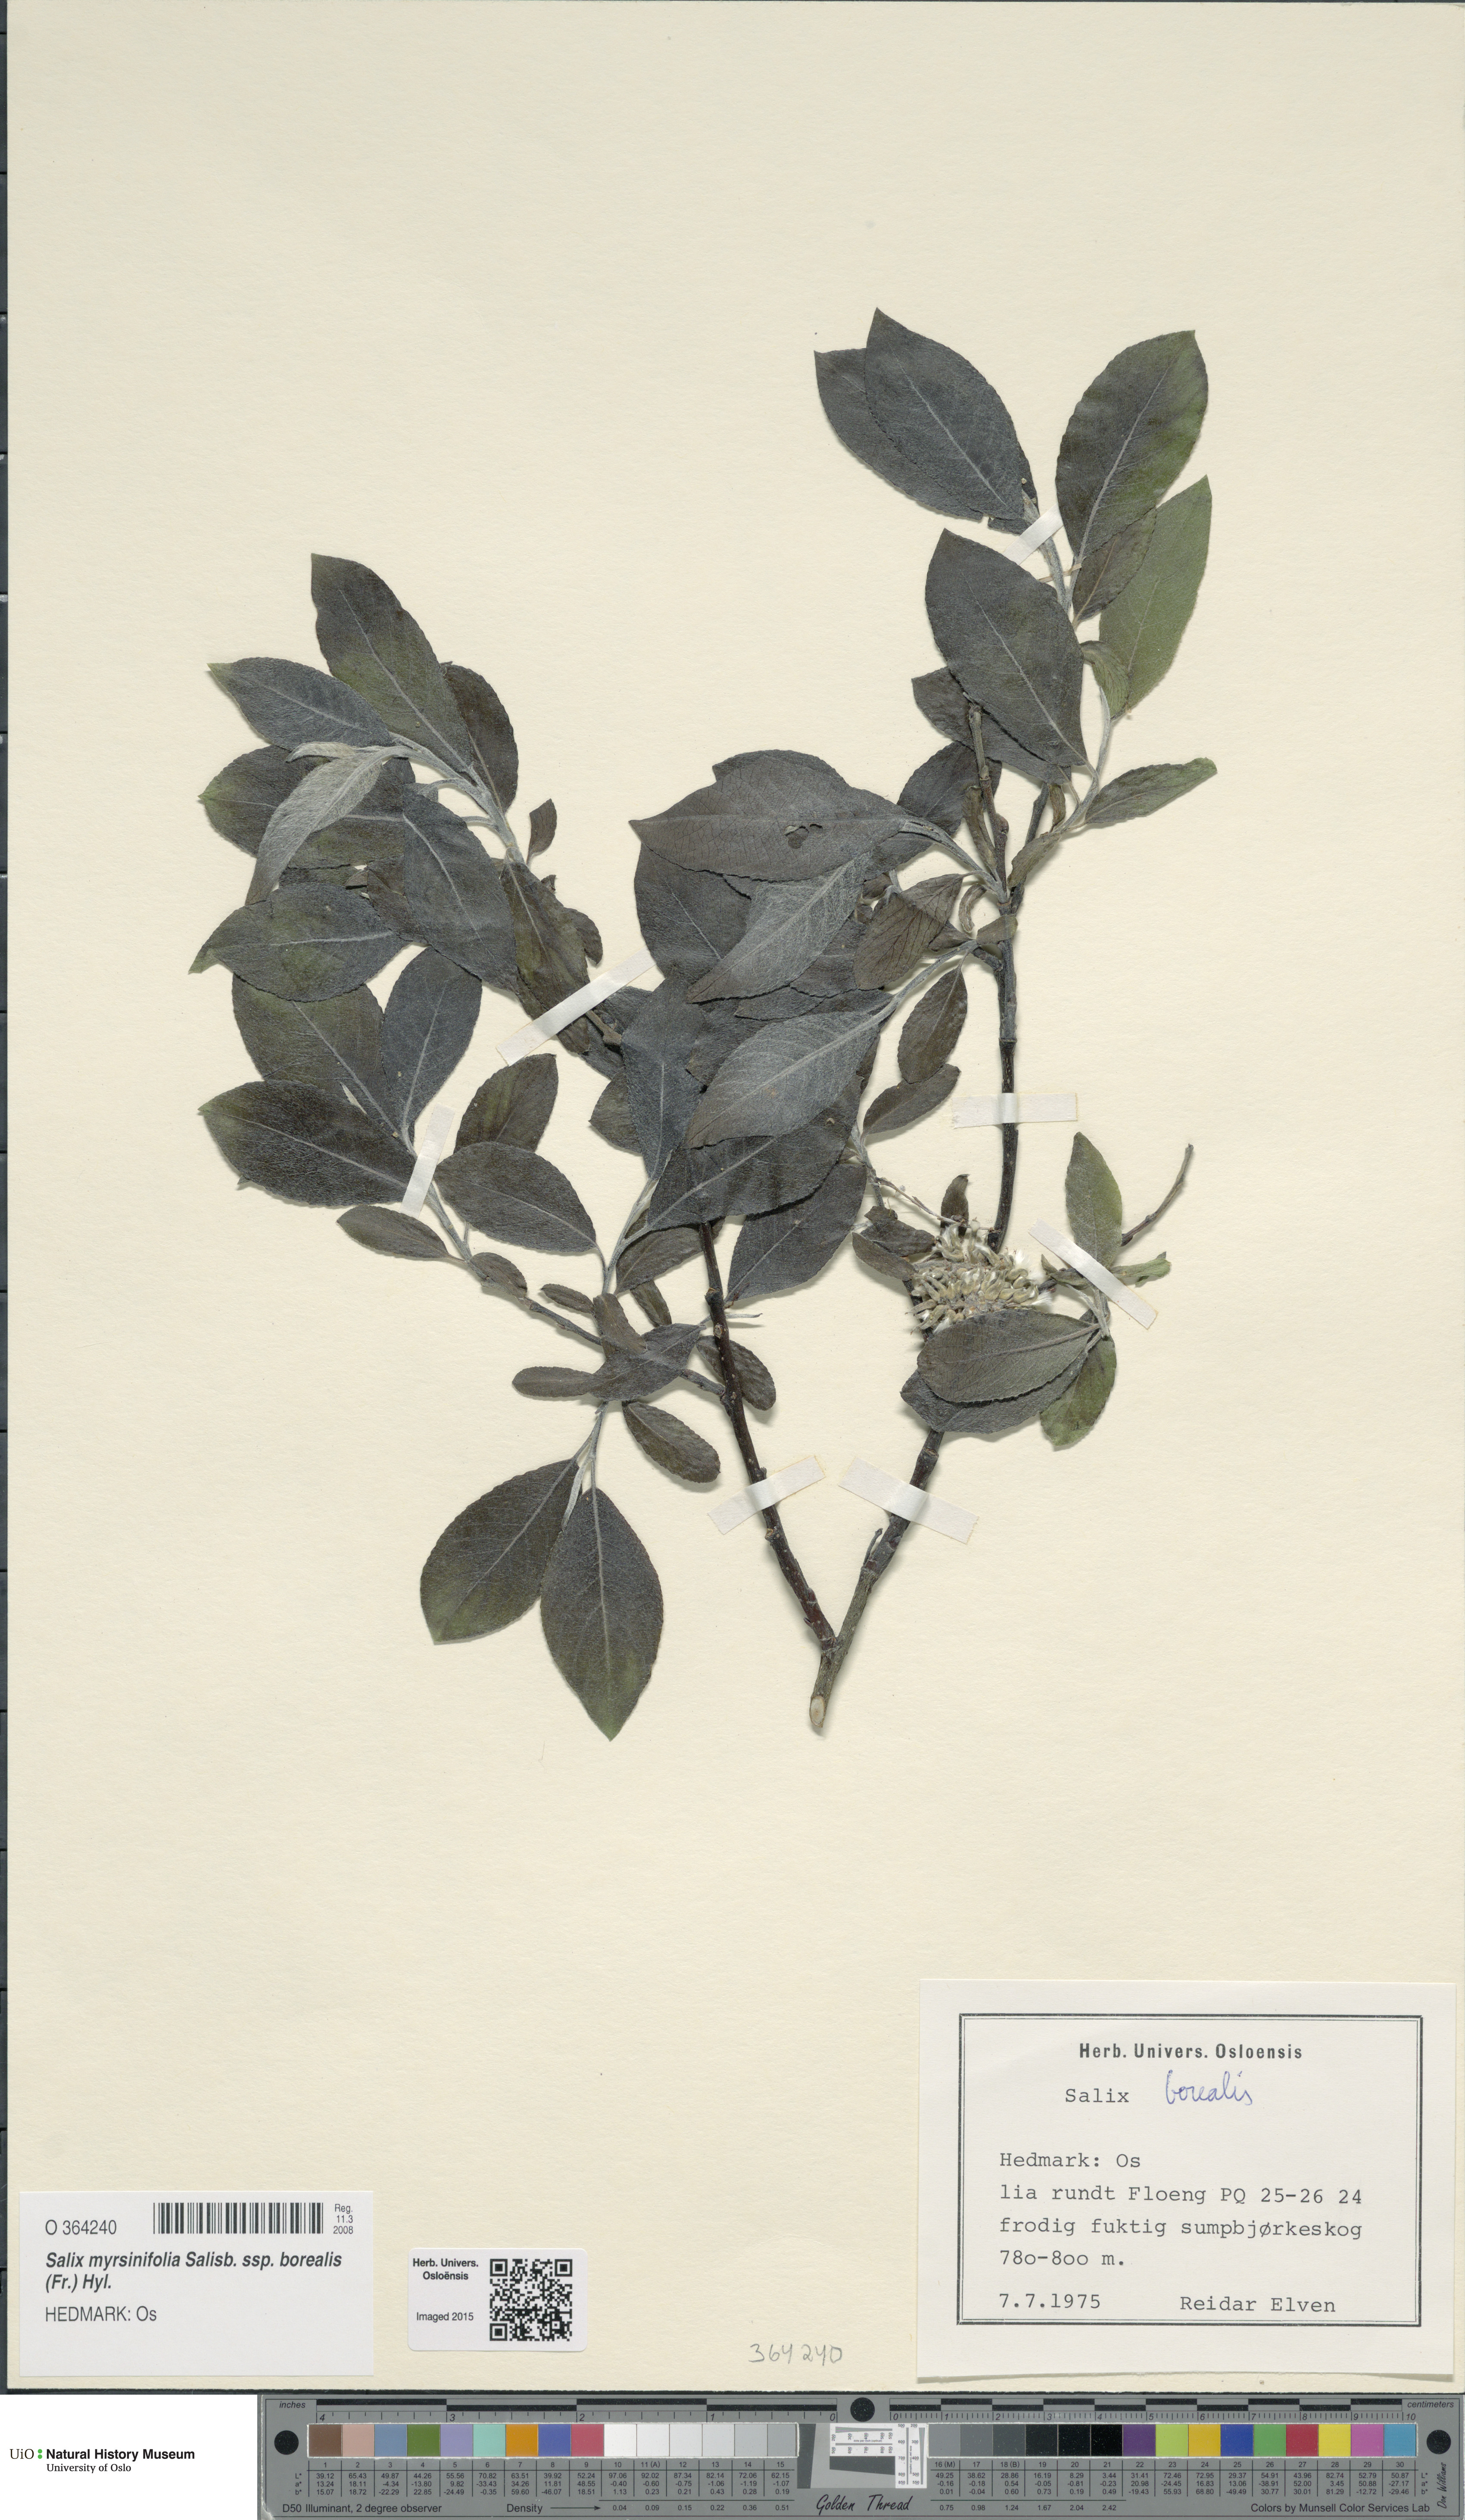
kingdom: Plantae
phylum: Tracheophyta
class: Magnoliopsida
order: Malpighiales
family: Salicaceae
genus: Salix
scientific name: Salix myrsinifolia
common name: Dark-leaved willow
